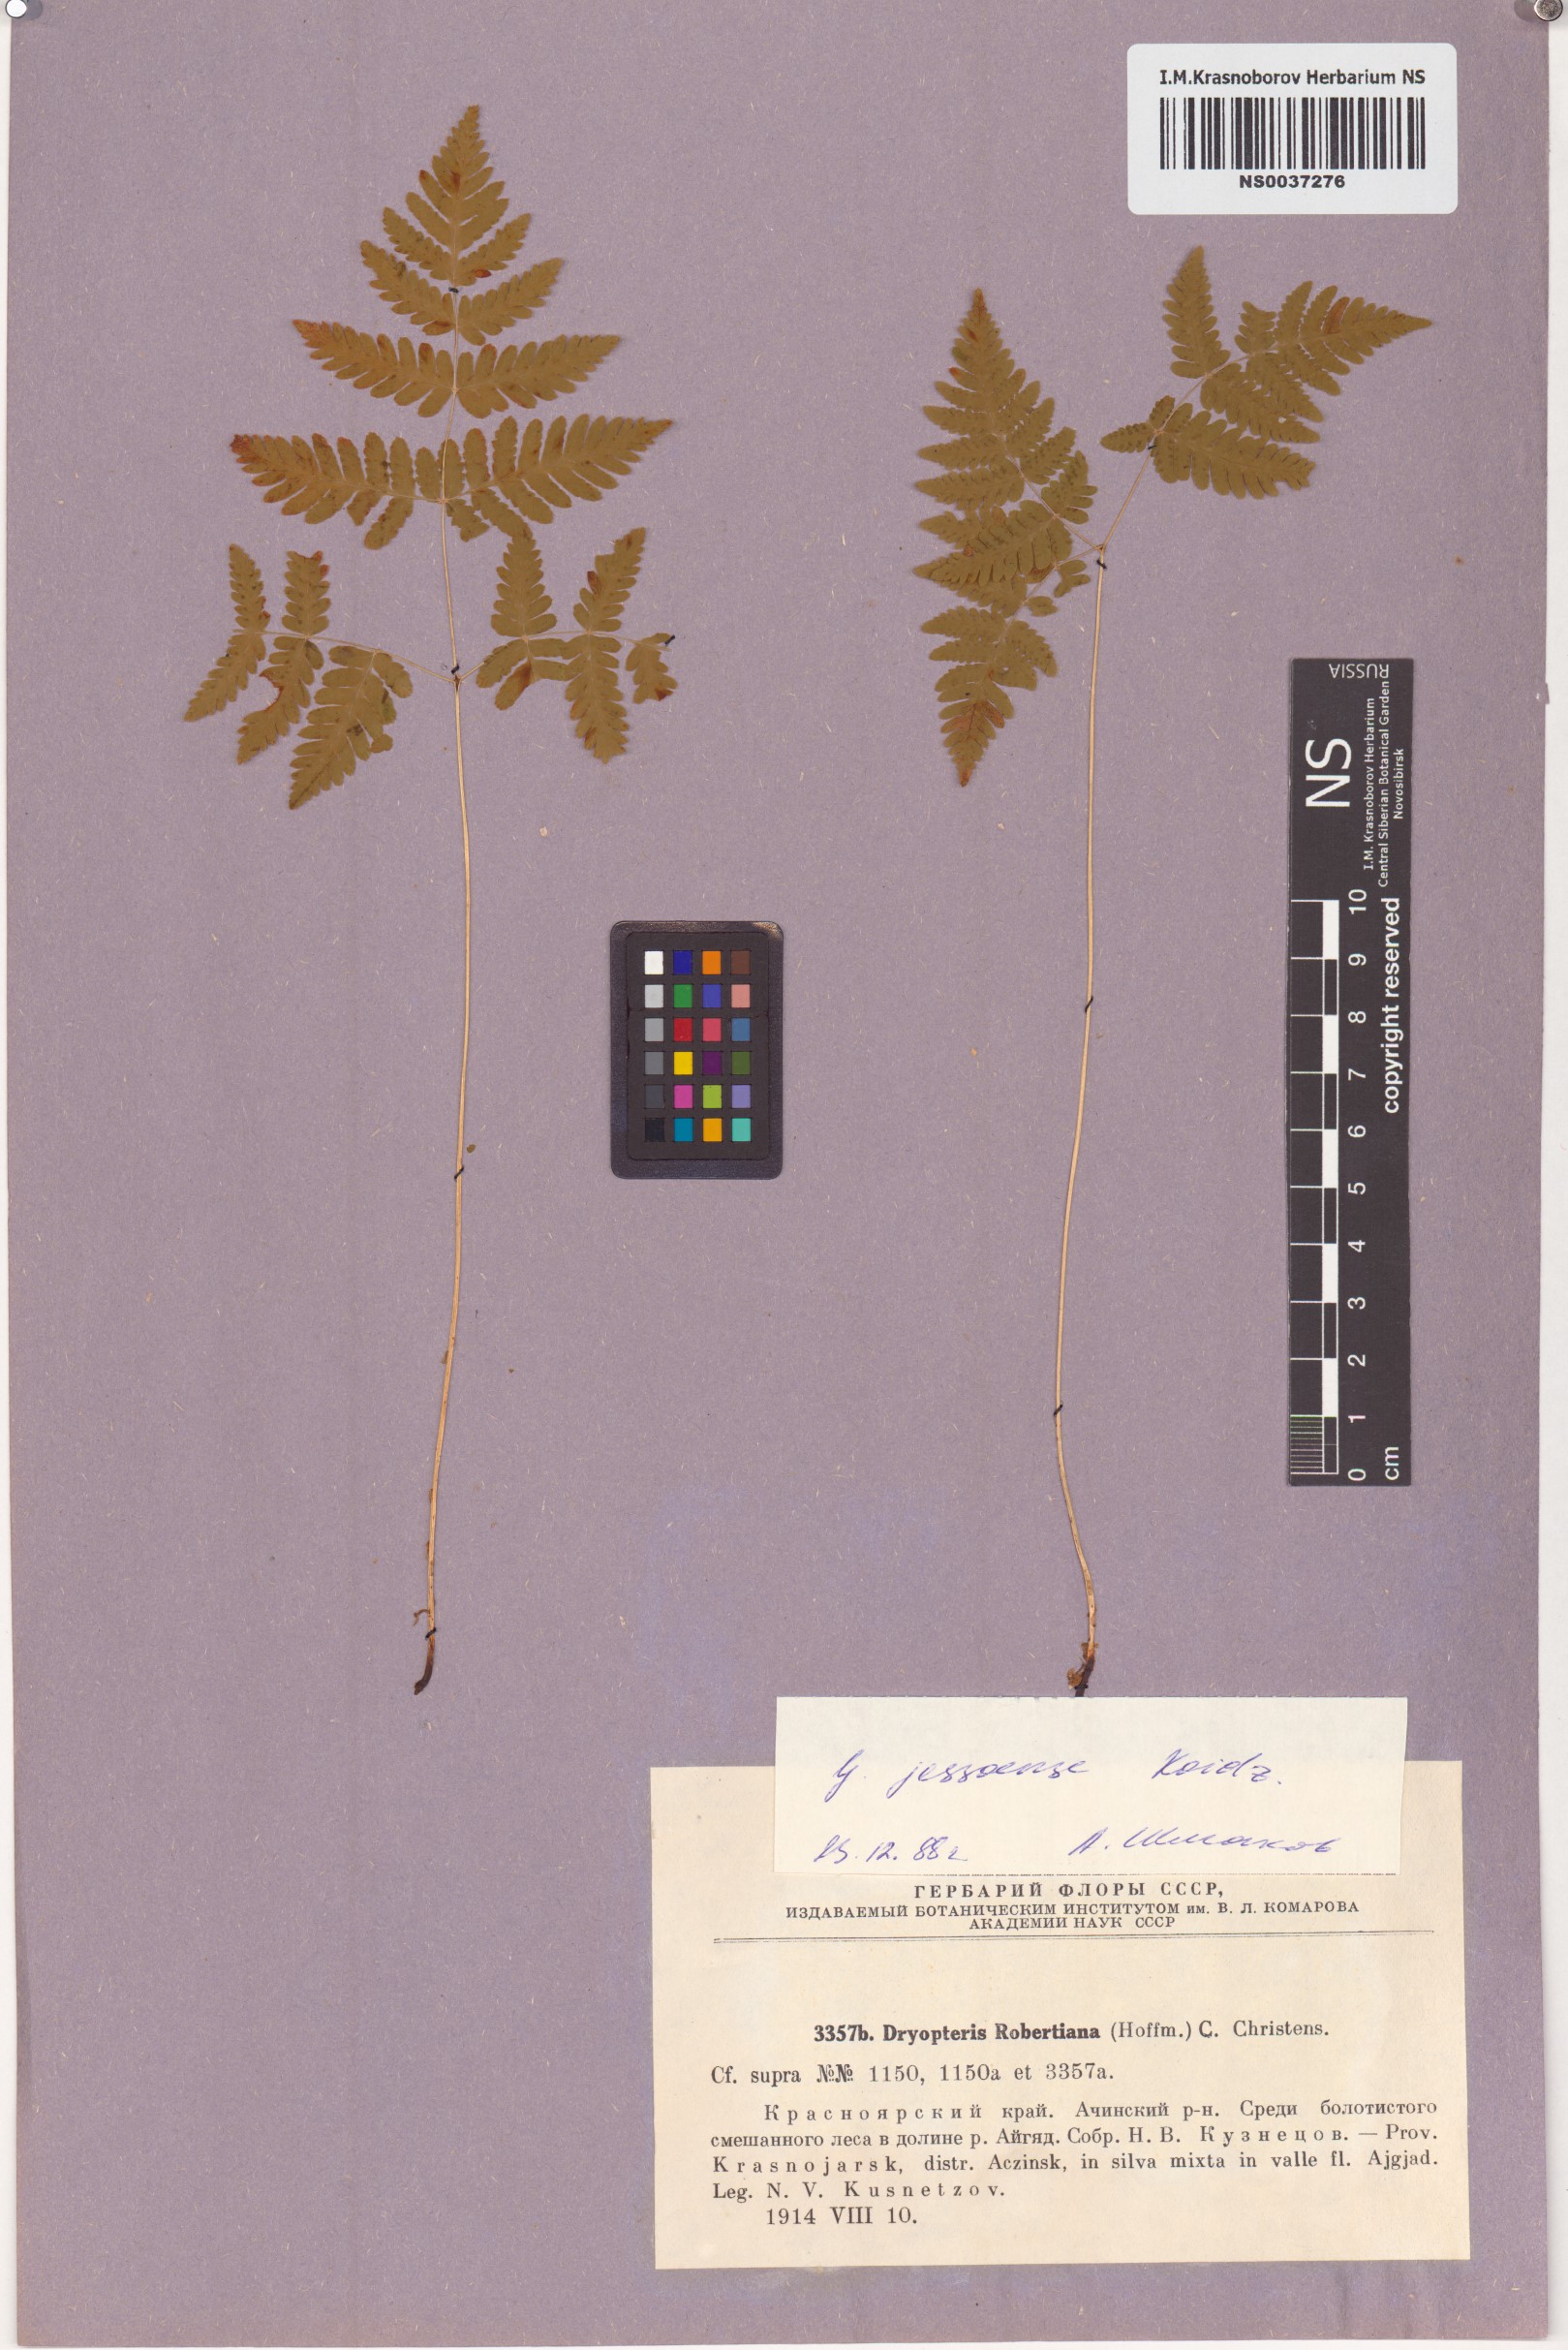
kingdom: Plantae
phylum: Tracheophyta
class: Polypodiopsida
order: Polypodiales
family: Cystopteridaceae
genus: Gymnocarpium
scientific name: Gymnocarpium jessoense
